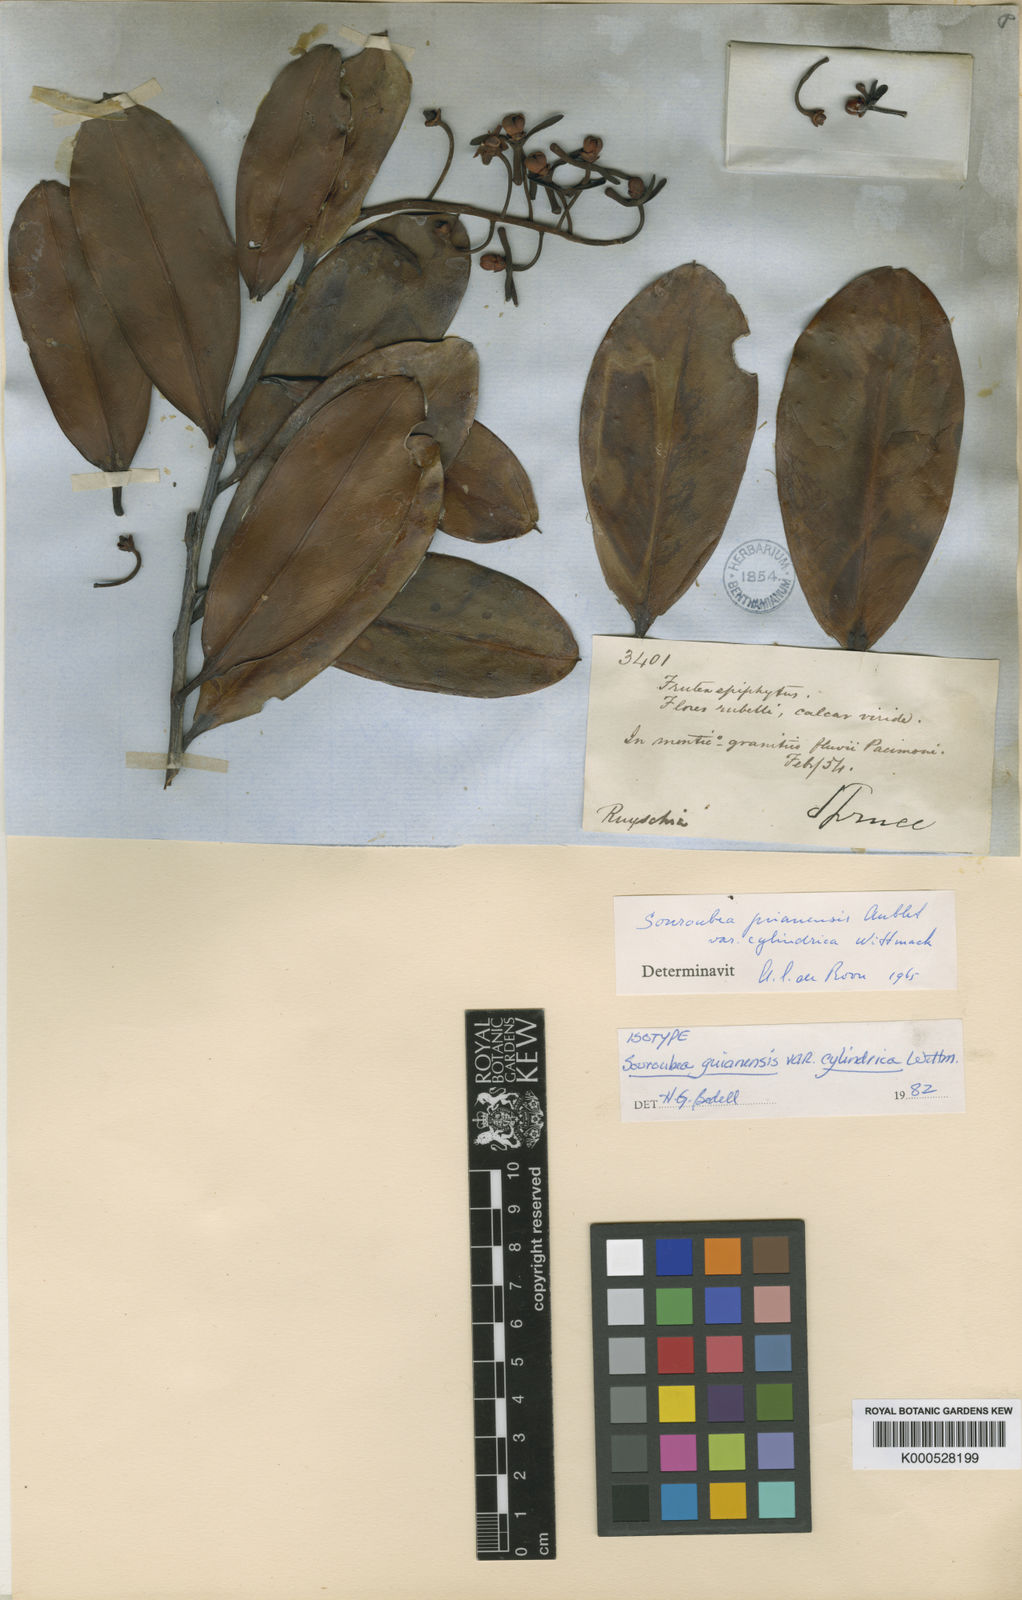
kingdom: Plantae
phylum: Tracheophyta
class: Magnoliopsida
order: Ericales
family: Marcgraviaceae
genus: Souroubea
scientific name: Souroubea guianensis
